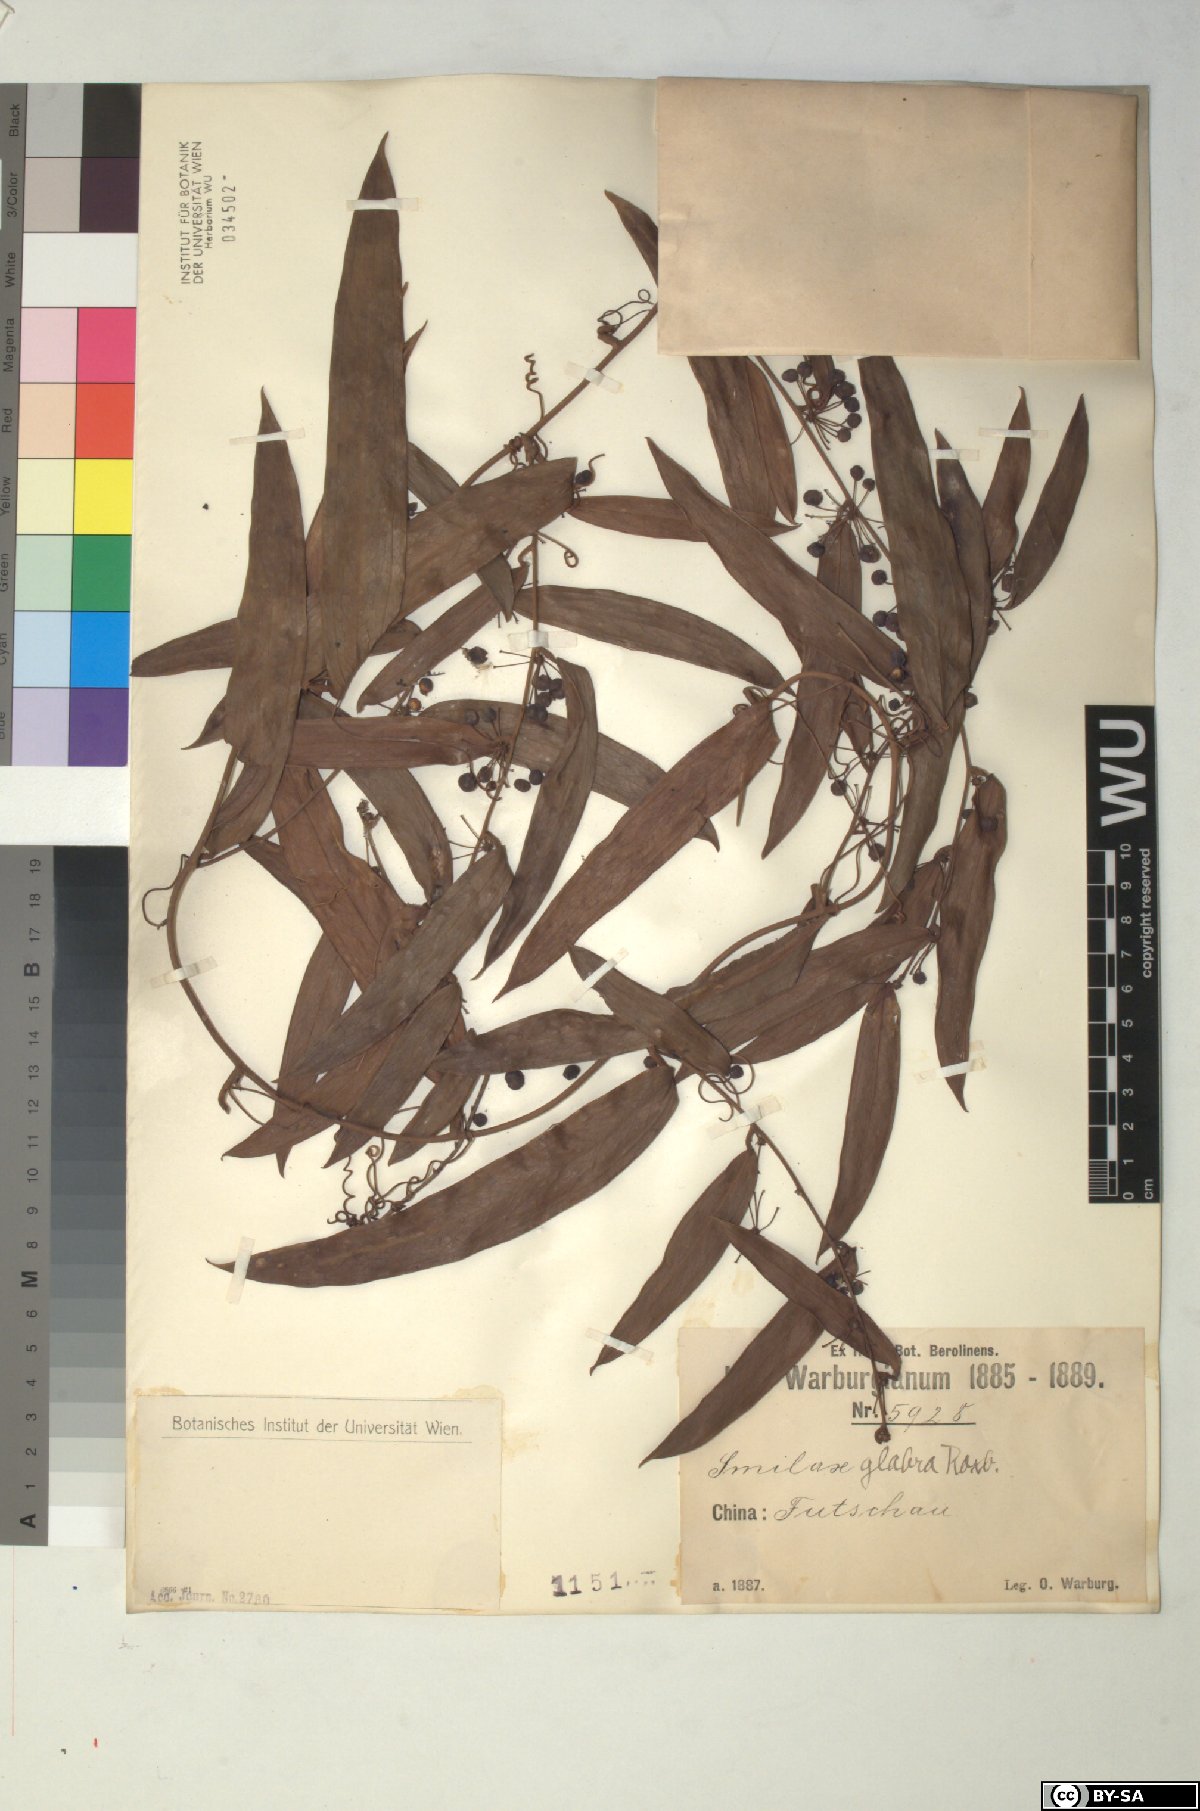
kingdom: Plantae
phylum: Tracheophyta
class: Liliopsida
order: Liliales
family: Smilacaceae
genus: Smilax
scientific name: Smilax glabra
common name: Chinese smilax
